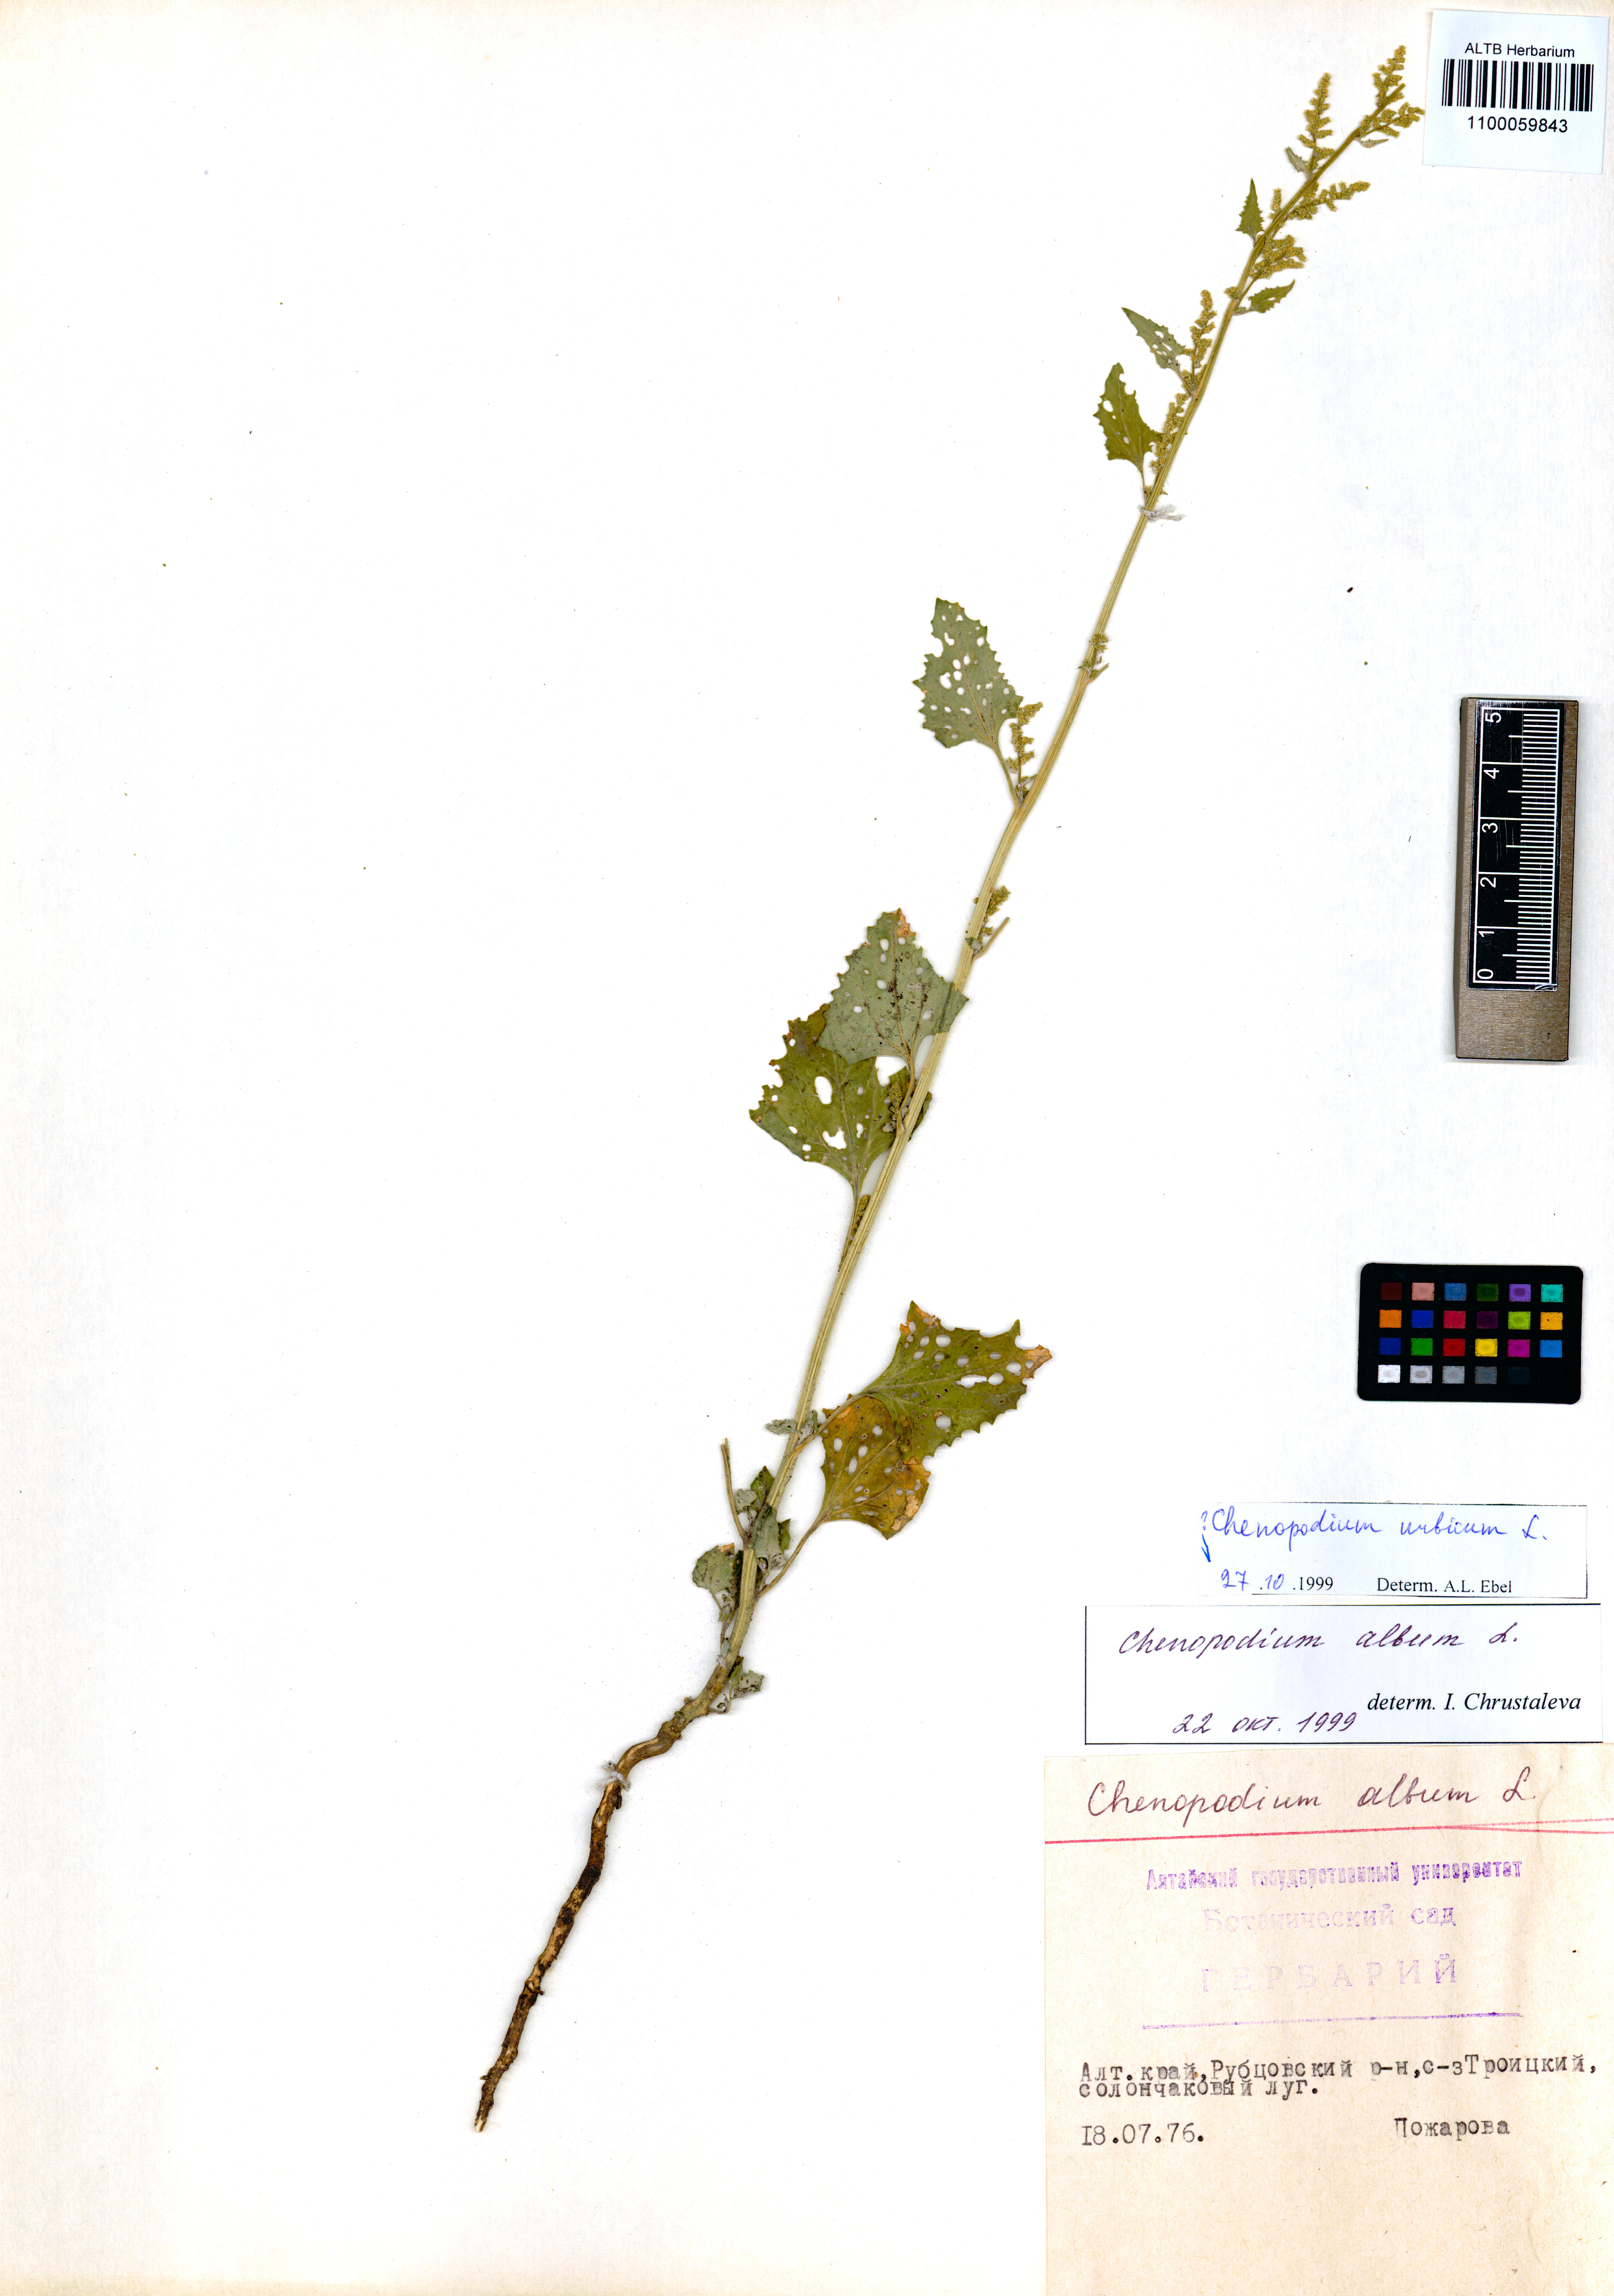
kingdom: Plantae
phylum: Tracheophyta
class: Magnoliopsida
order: Caryophyllales
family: Amaranthaceae
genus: Oxybasis
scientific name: Oxybasis urbica
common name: City goosefoot
